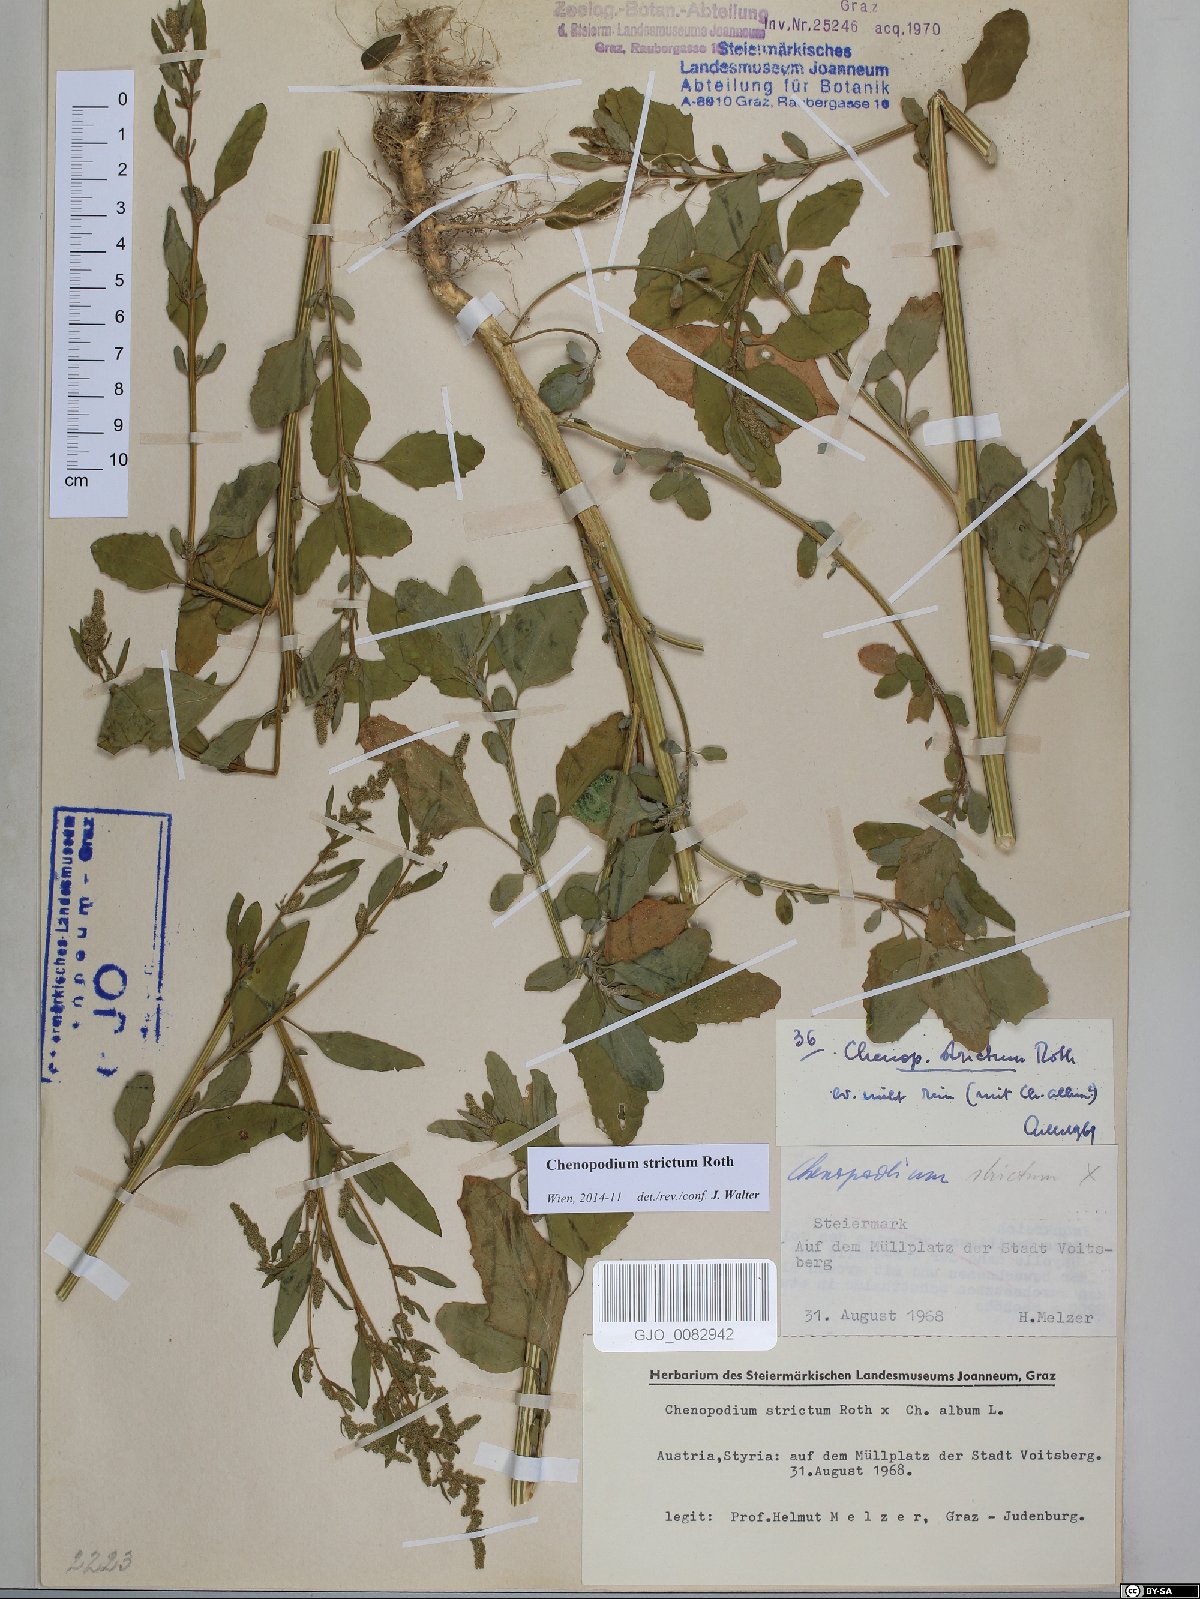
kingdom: Plantae
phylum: Tracheophyta
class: Magnoliopsida
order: Caryophyllales
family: Amaranthaceae
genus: Chenopodium
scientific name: Chenopodium album
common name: Fat-hen
